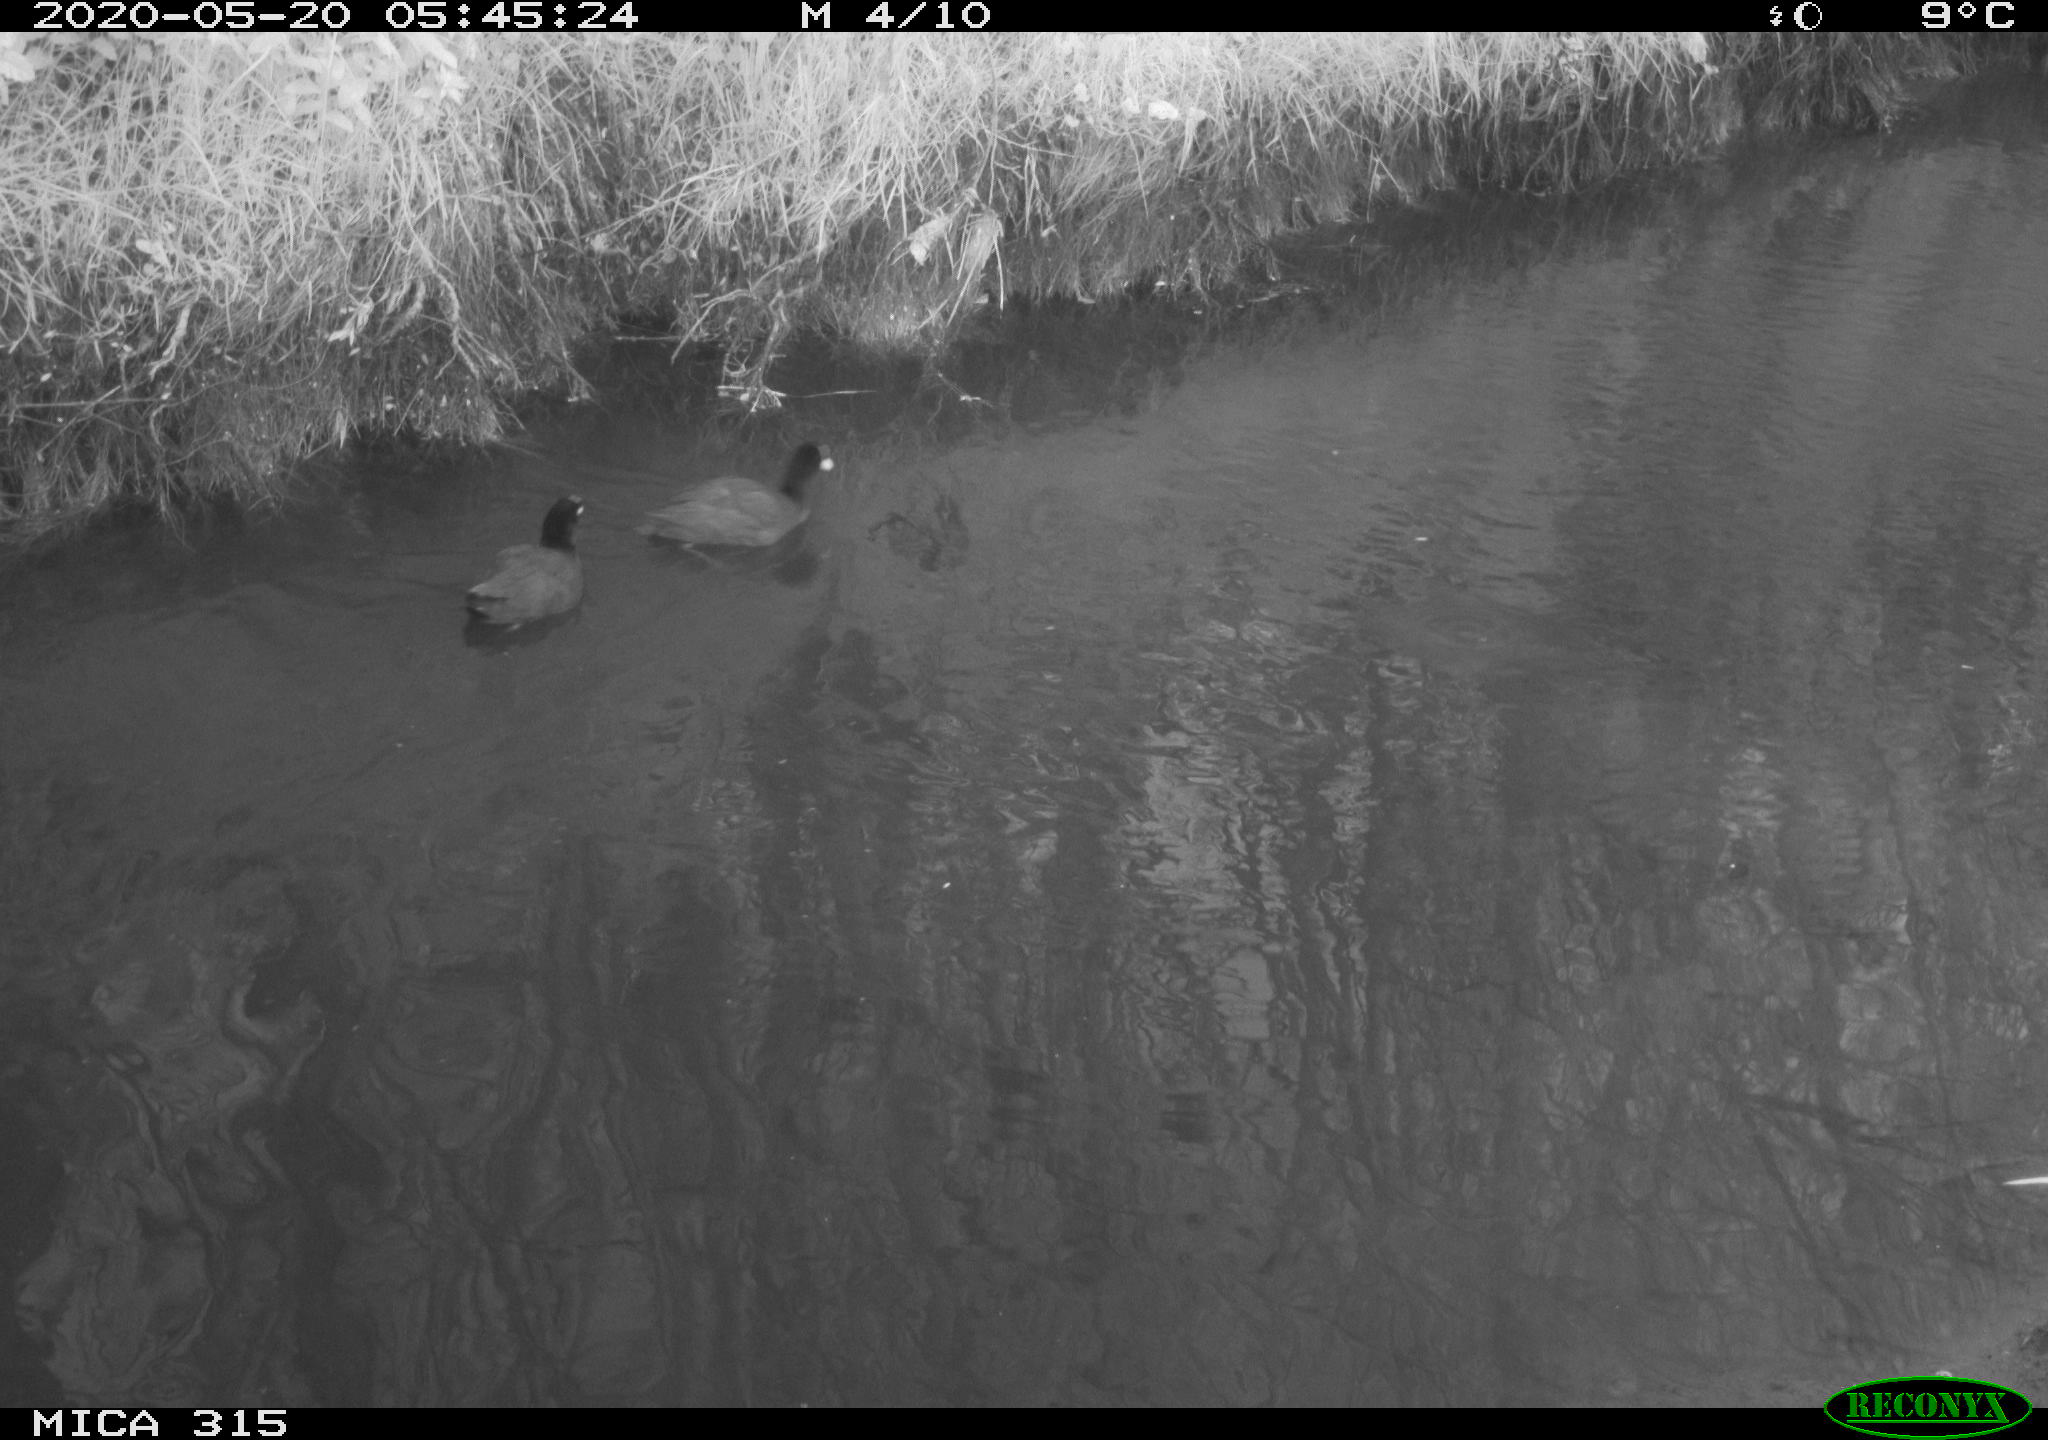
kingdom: Animalia
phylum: Chordata
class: Aves
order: Pelecaniformes
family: Ardeidae
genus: Ardea
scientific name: Ardea cinerea
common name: Grey heron
